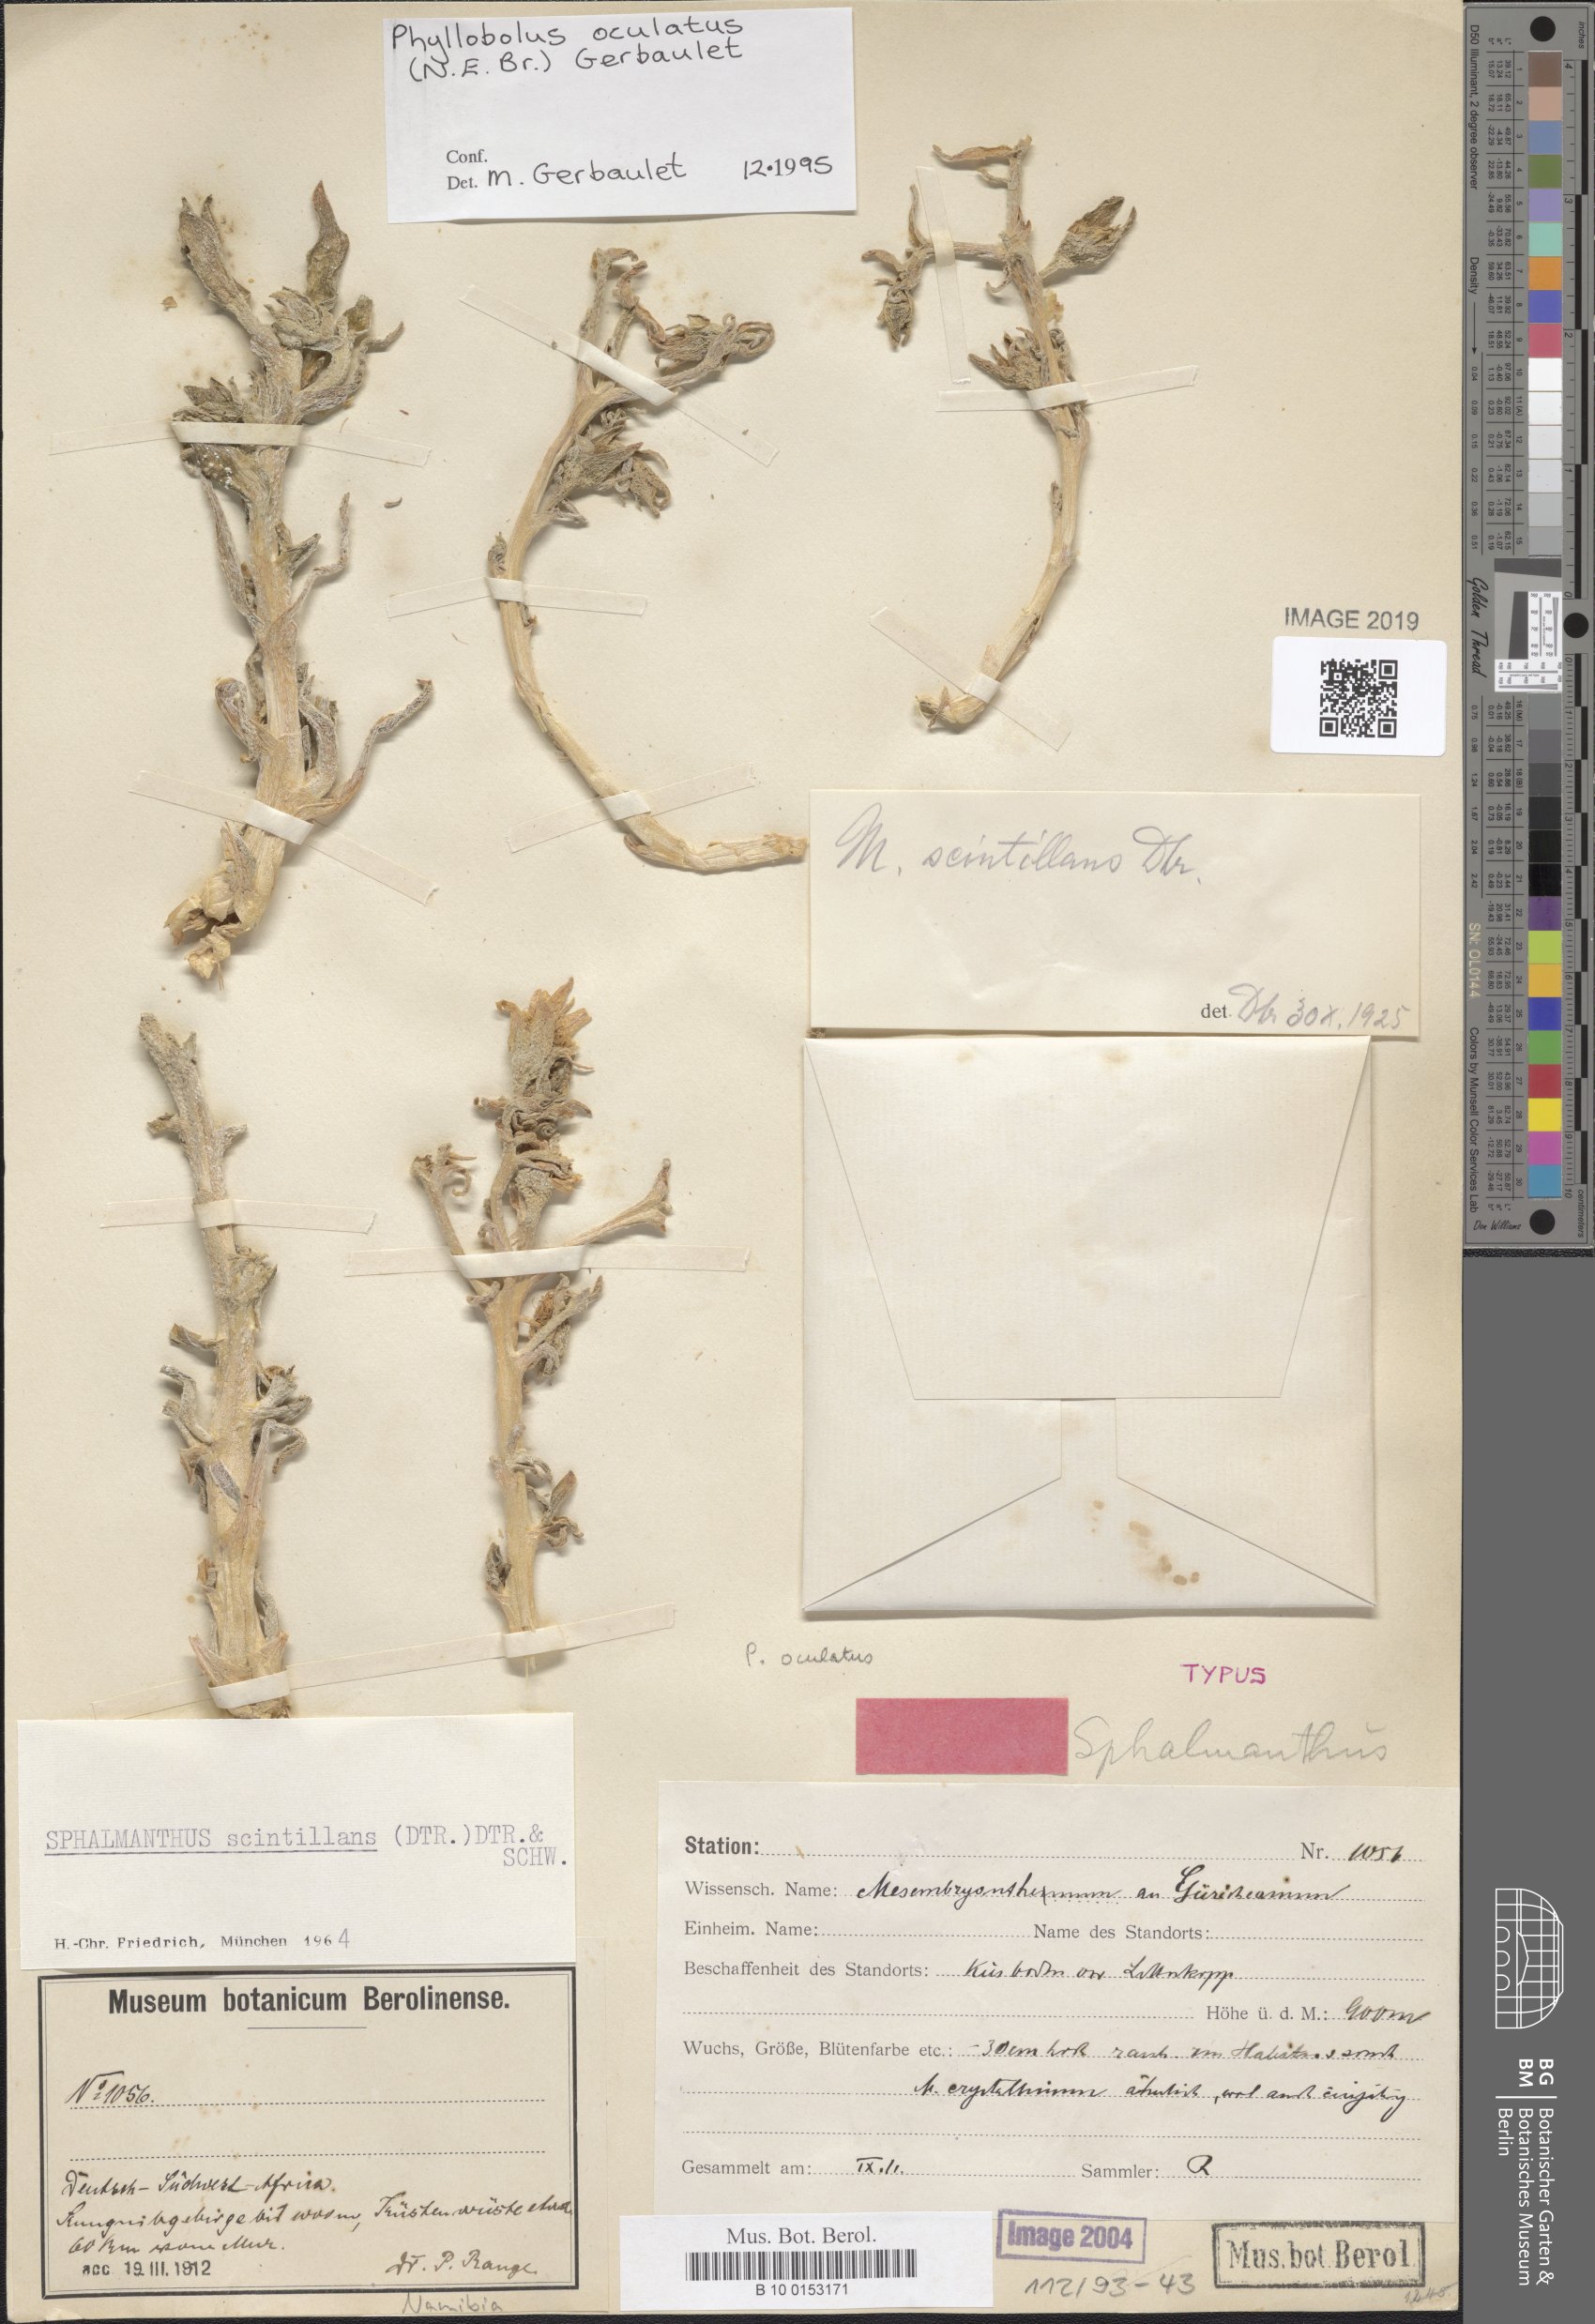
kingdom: Plantae
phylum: Tracheophyta
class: Magnoliopsida
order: Caryophyllales
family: Aizoaceae
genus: Mesembryanthemum
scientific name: Mesembryanthemum oculatum
